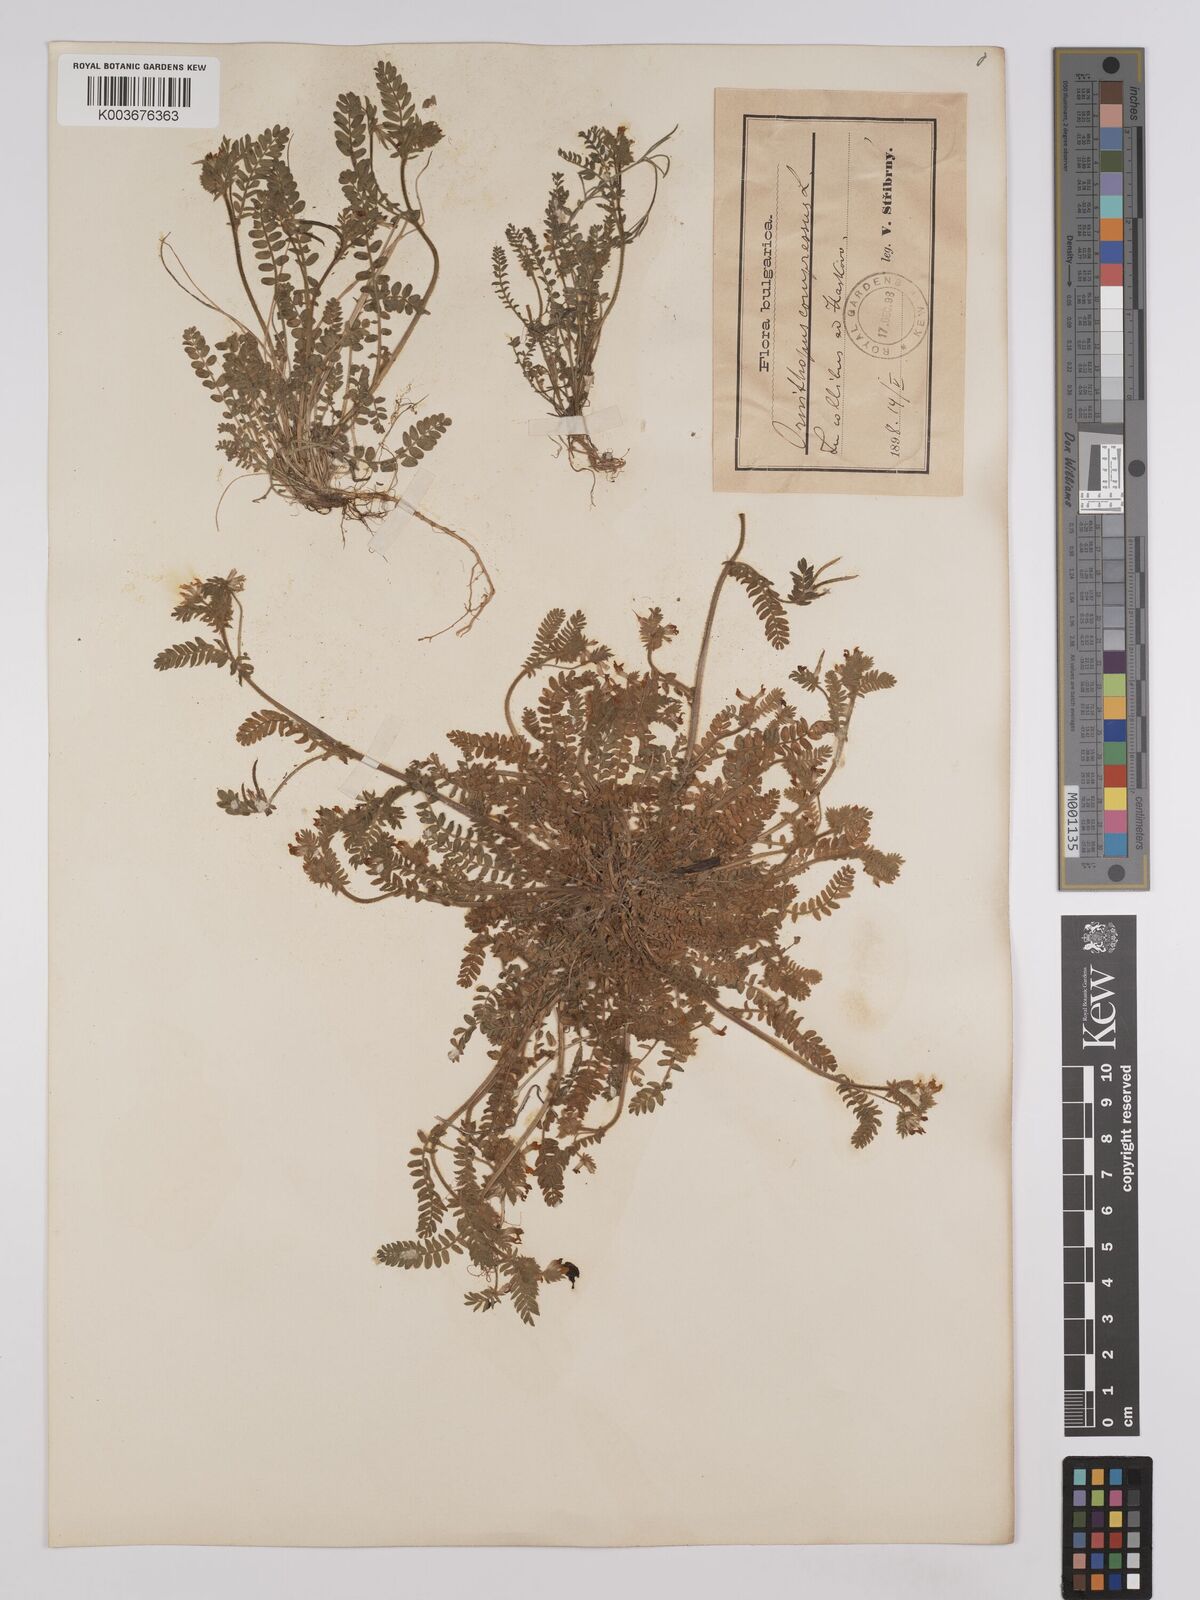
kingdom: Plantae
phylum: Tracheophyta
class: Magnoliopsida
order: Fabales
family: Fabaceae
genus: Ornithopus
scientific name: Ornithopus compressus
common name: Yellow serradella
